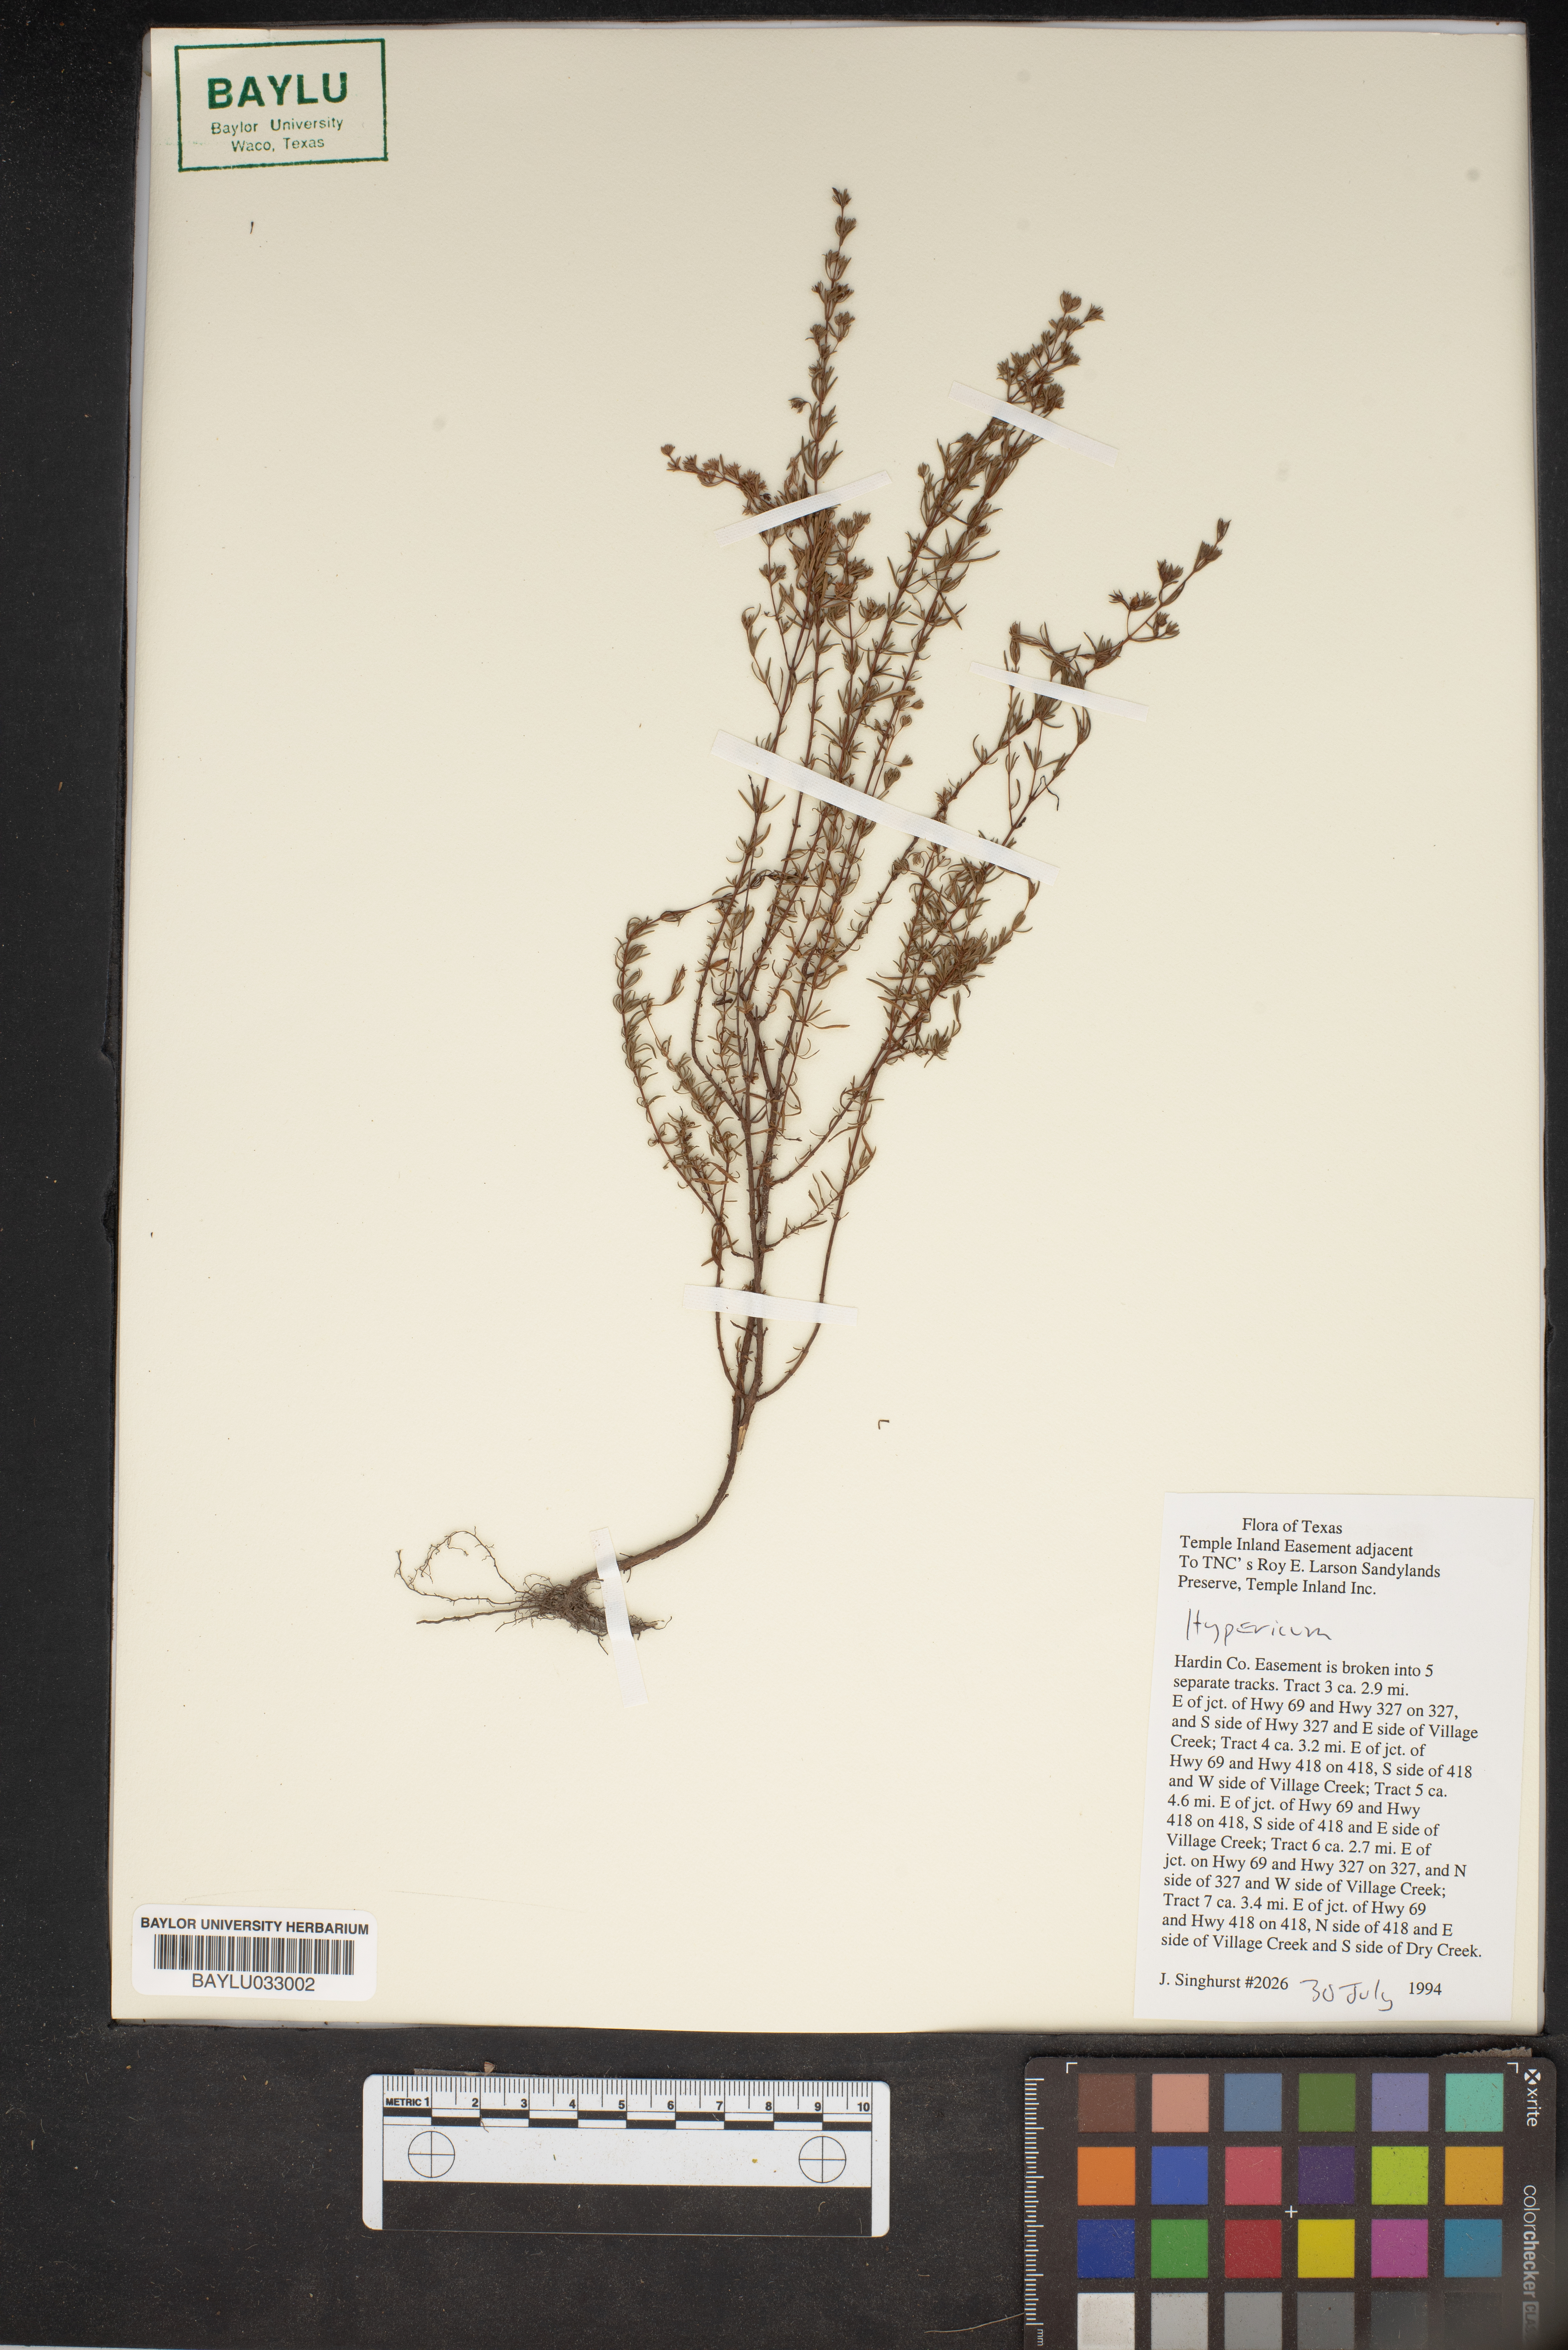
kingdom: Plantae
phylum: Tracheophyta
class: Magnoliopsida
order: Malpighiales
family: Hypericaceae
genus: Hypericum
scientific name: Hypericum
